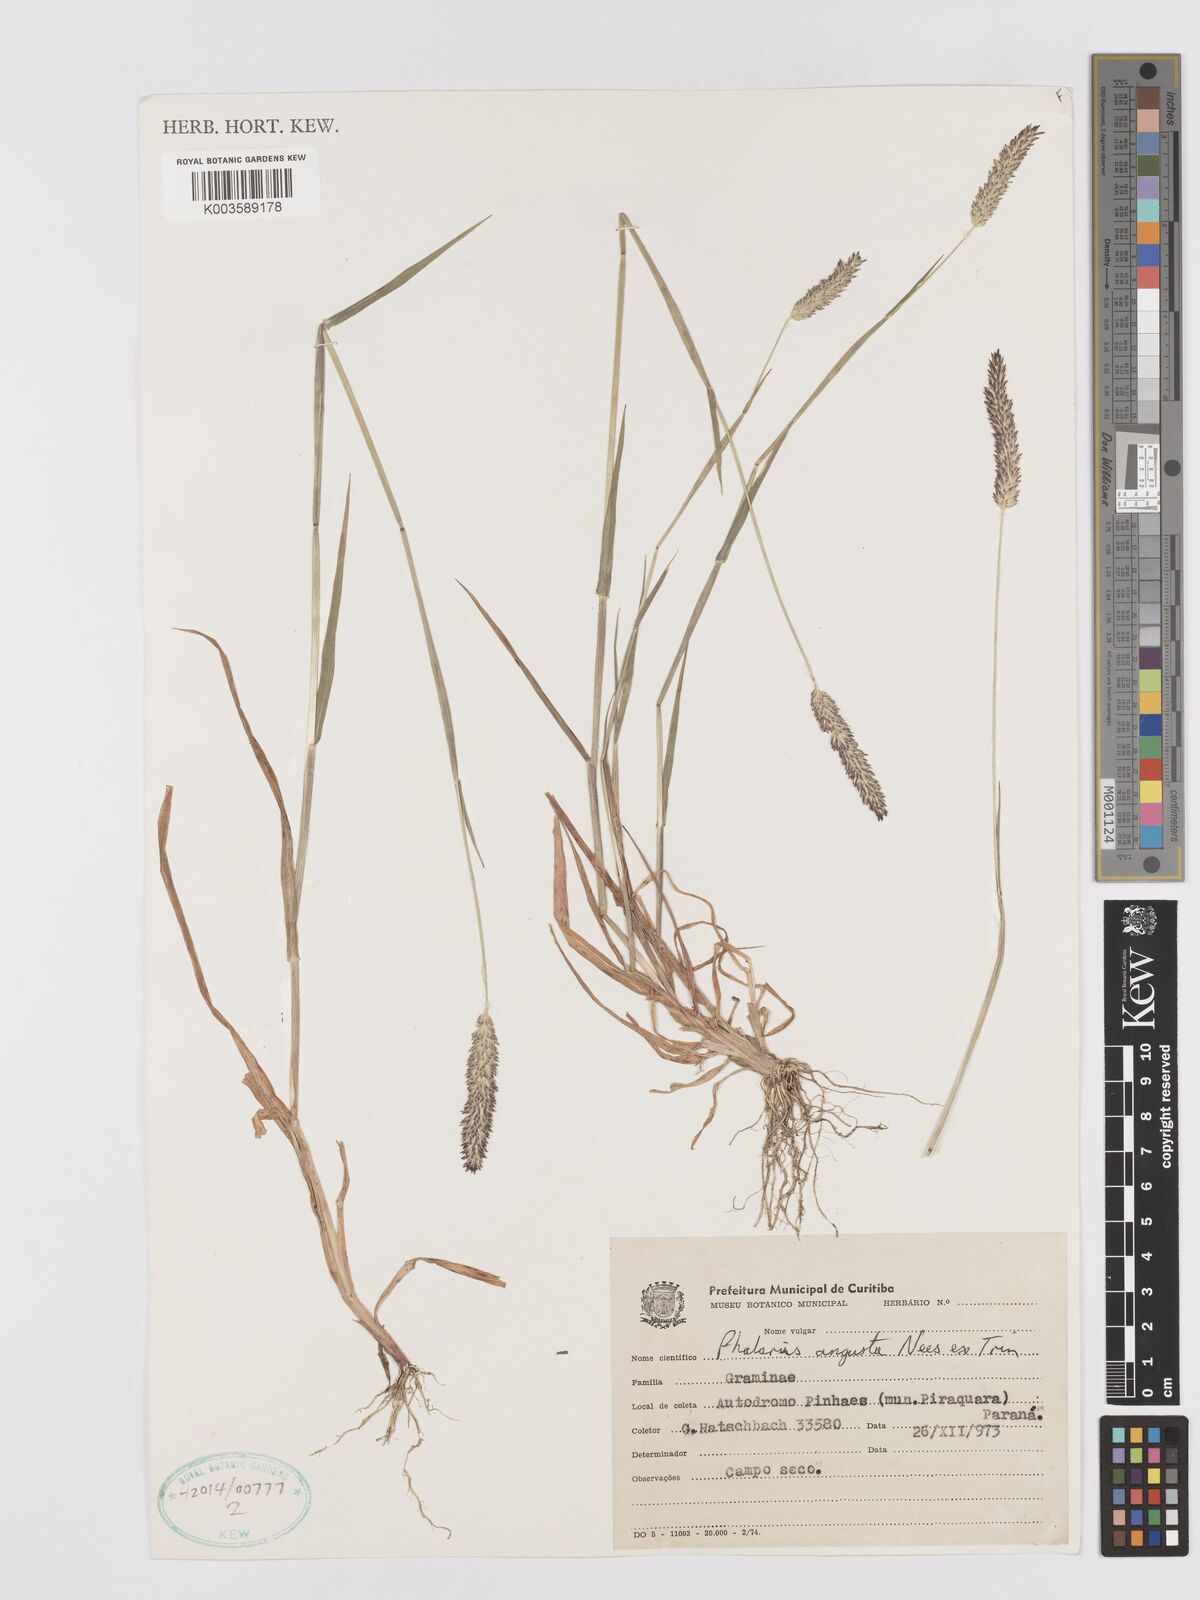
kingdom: Plantae
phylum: Tracheophyta
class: Liliopsida
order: Poales
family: Poaceae
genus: Phalaris
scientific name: Phalaris angusta
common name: Narrow canary grass
